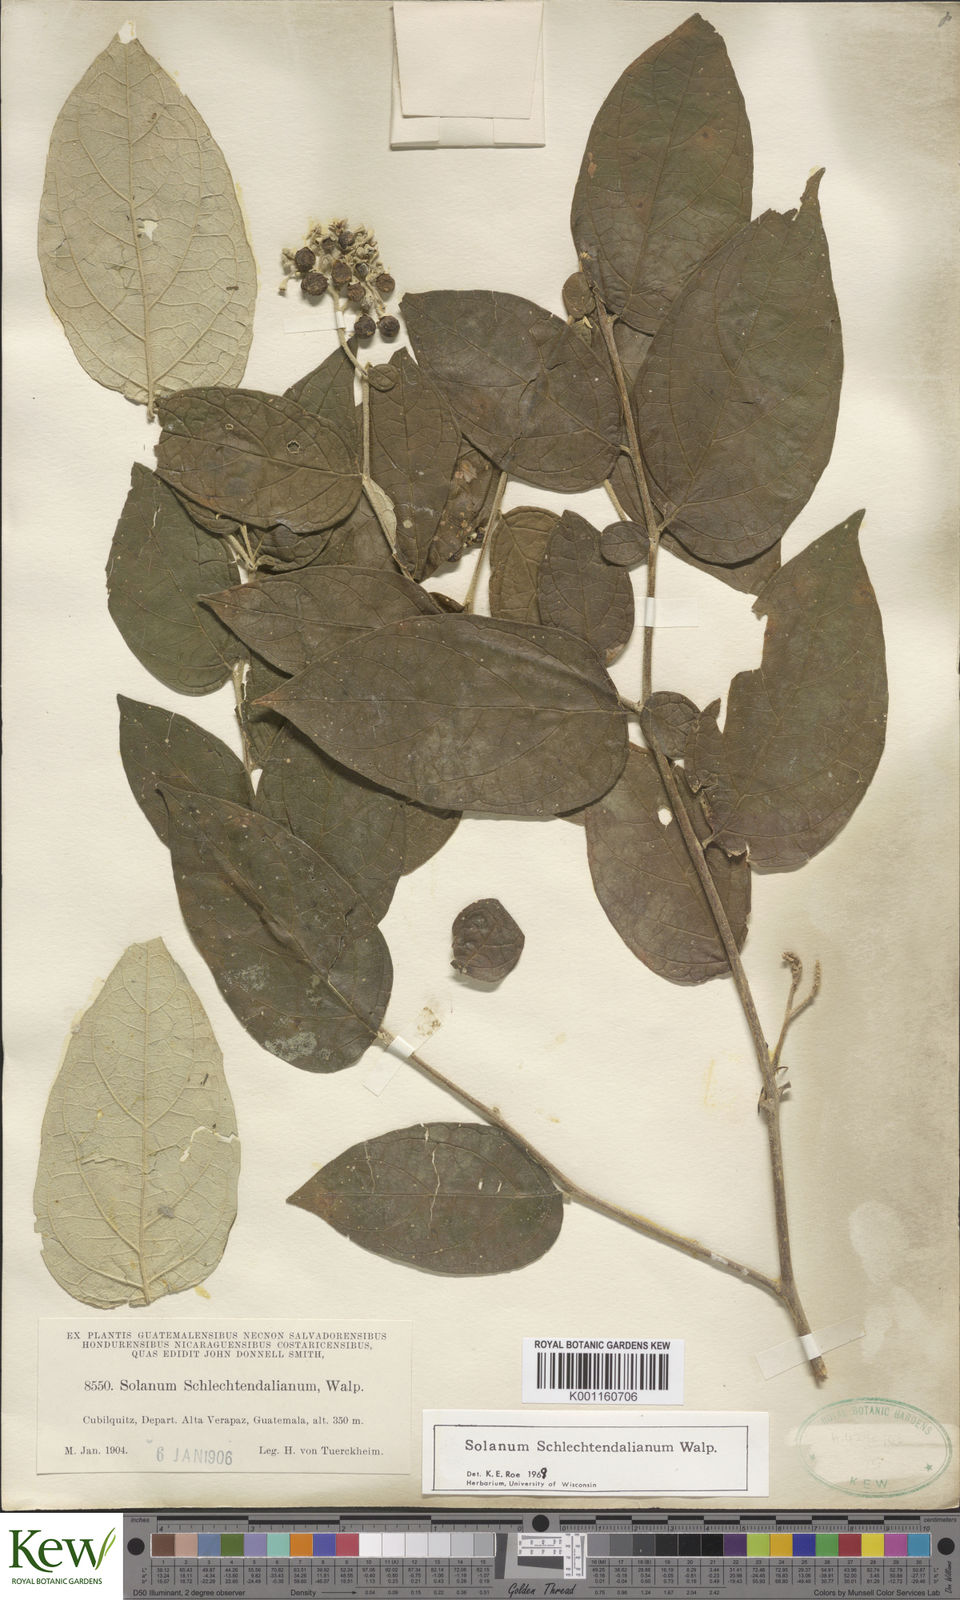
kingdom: Plantae
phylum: Tracheophyta
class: Magnoliopsida
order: Solanales
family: Solanaceae
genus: Solanum
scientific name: Solanum schlechtendalianum
